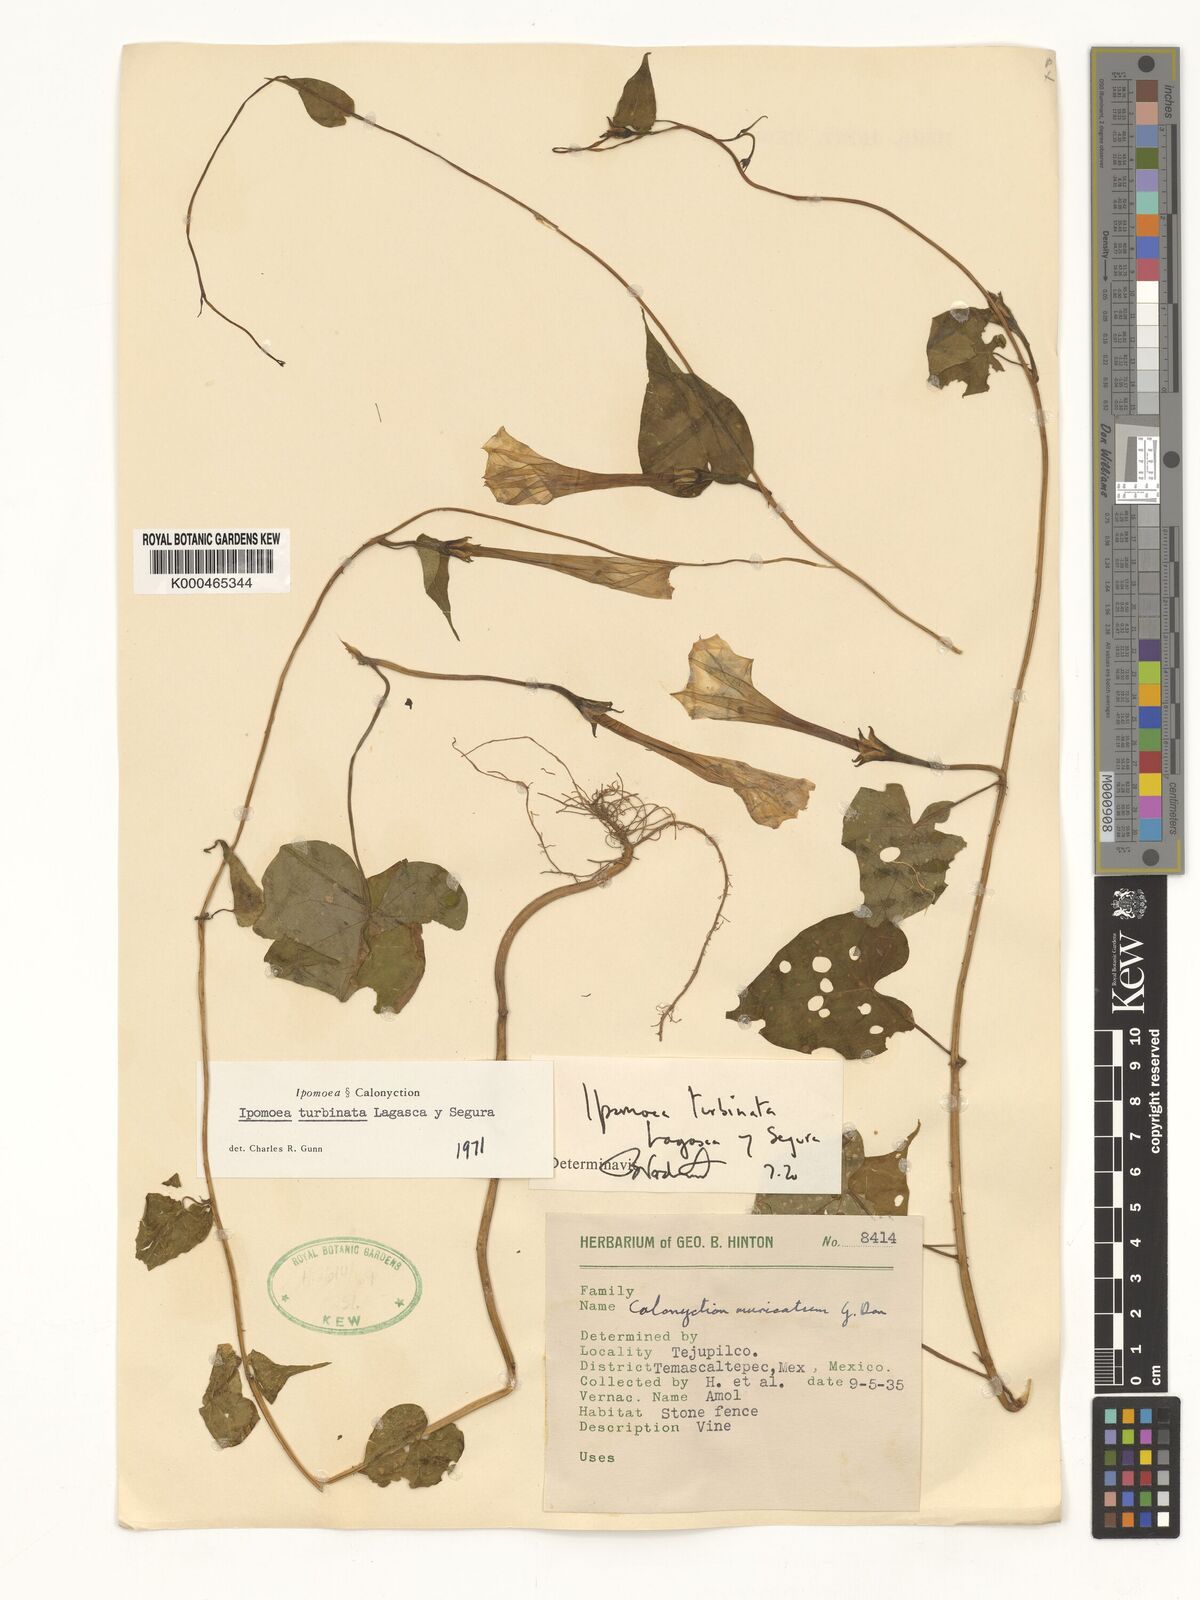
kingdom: Plantae
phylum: Tracheophyta
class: Magnoliopsida
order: Solanales
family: Convolvulaceae
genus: Ipomoea
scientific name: Ipomoea muricata
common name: Lilac-bell
